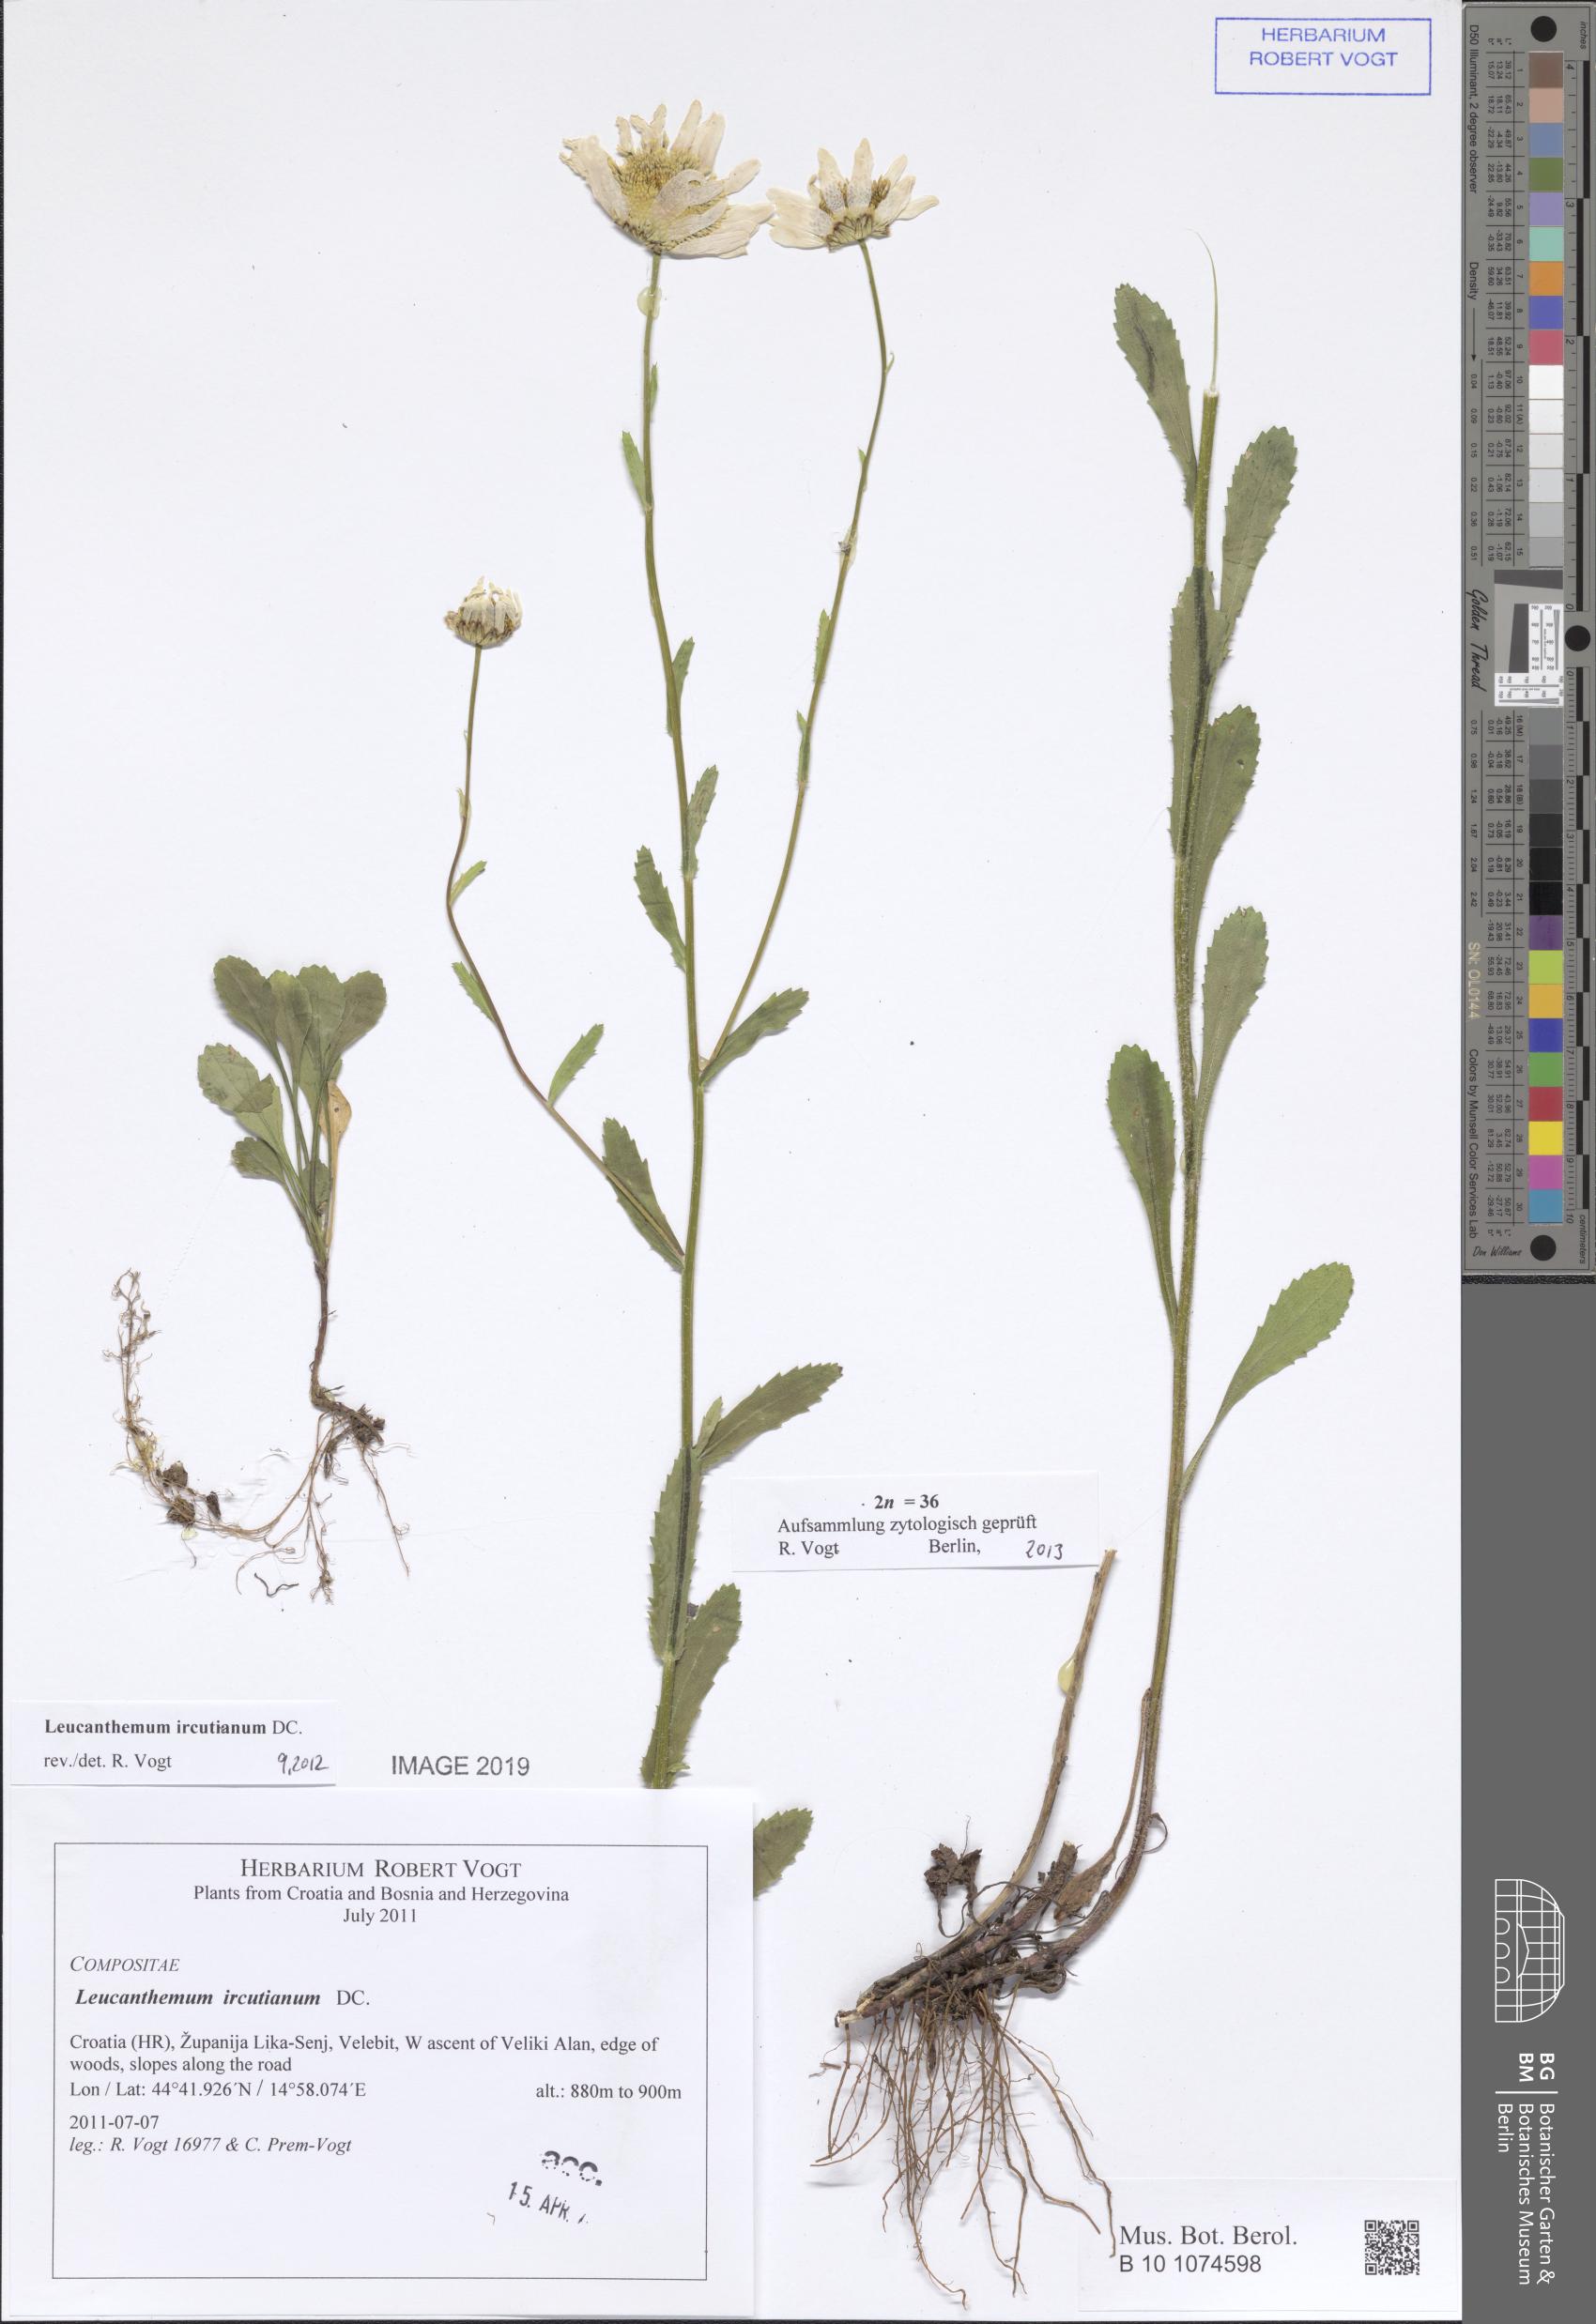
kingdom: Plantae
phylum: Tracheophyta
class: Magnoliopsida
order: Asterales
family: Asteraceae
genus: Leucanthemum
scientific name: Leucanthemum ircutianum
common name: Daisy
